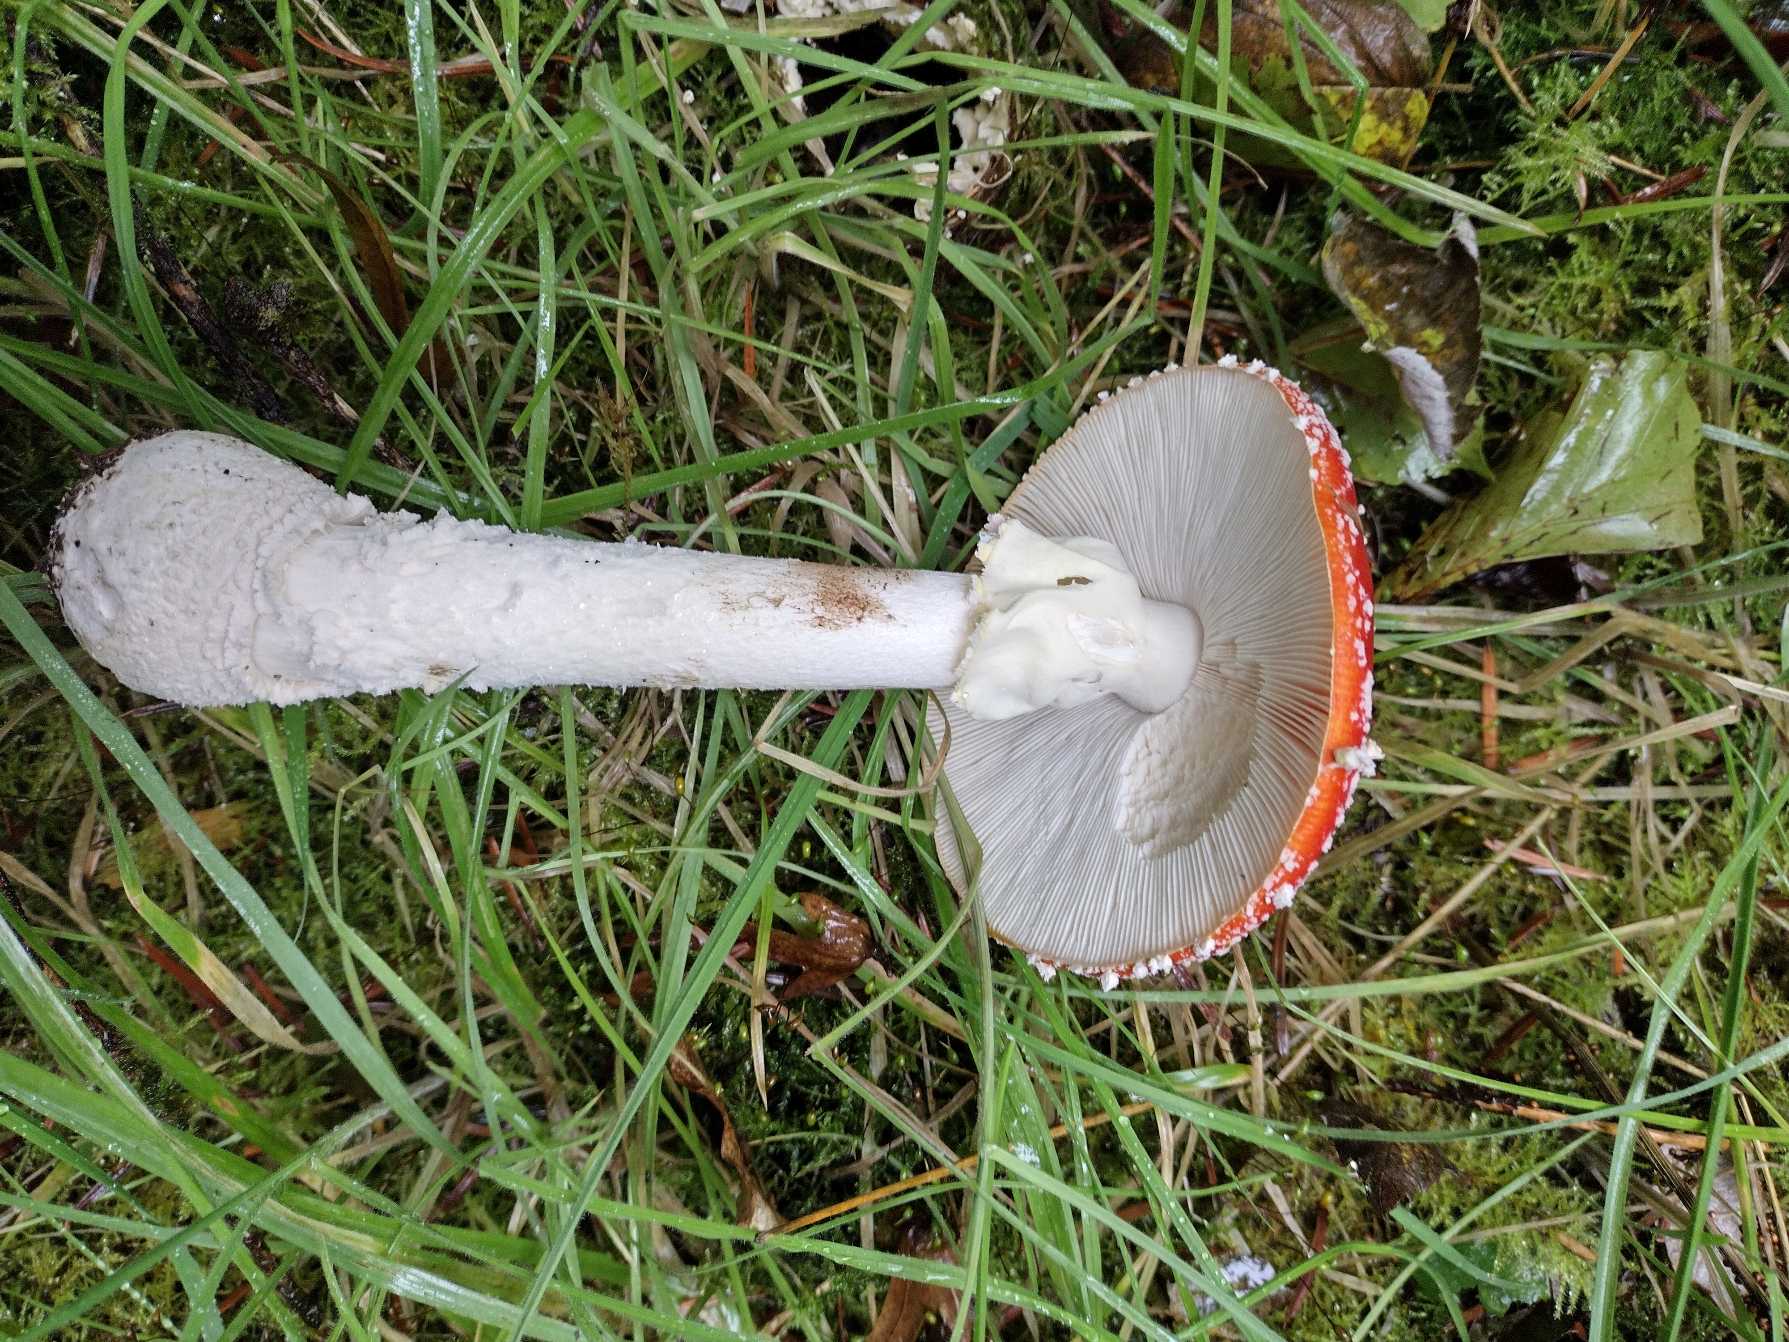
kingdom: Fungi
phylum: Basidiomycota
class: Agaricomycetes
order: Agaricales
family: Amanitaceae
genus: Amanita
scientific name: Amanita muscaria
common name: Rød fluesvamp
